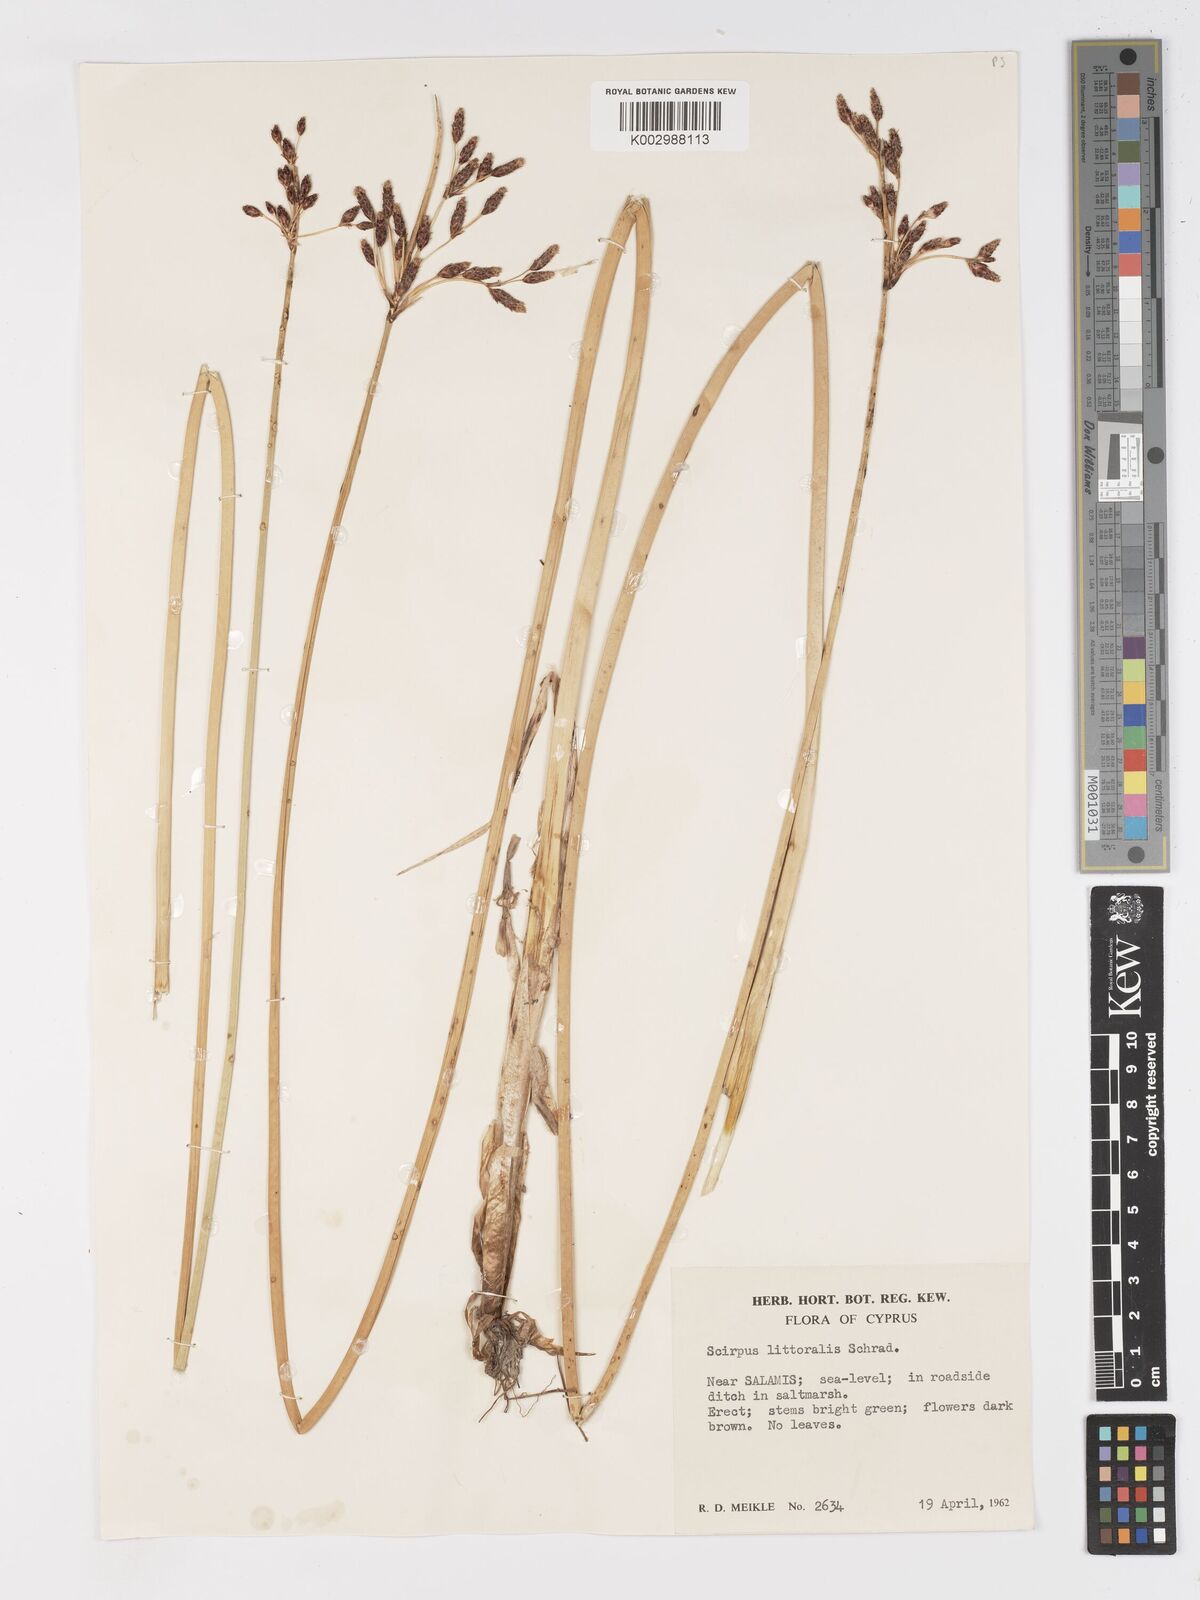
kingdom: Plantae
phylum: Tracheophyta
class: Liliopsida
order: Poales
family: Cyperaceae
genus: Schoenoplectus
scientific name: Schoenoplectus litoralis
